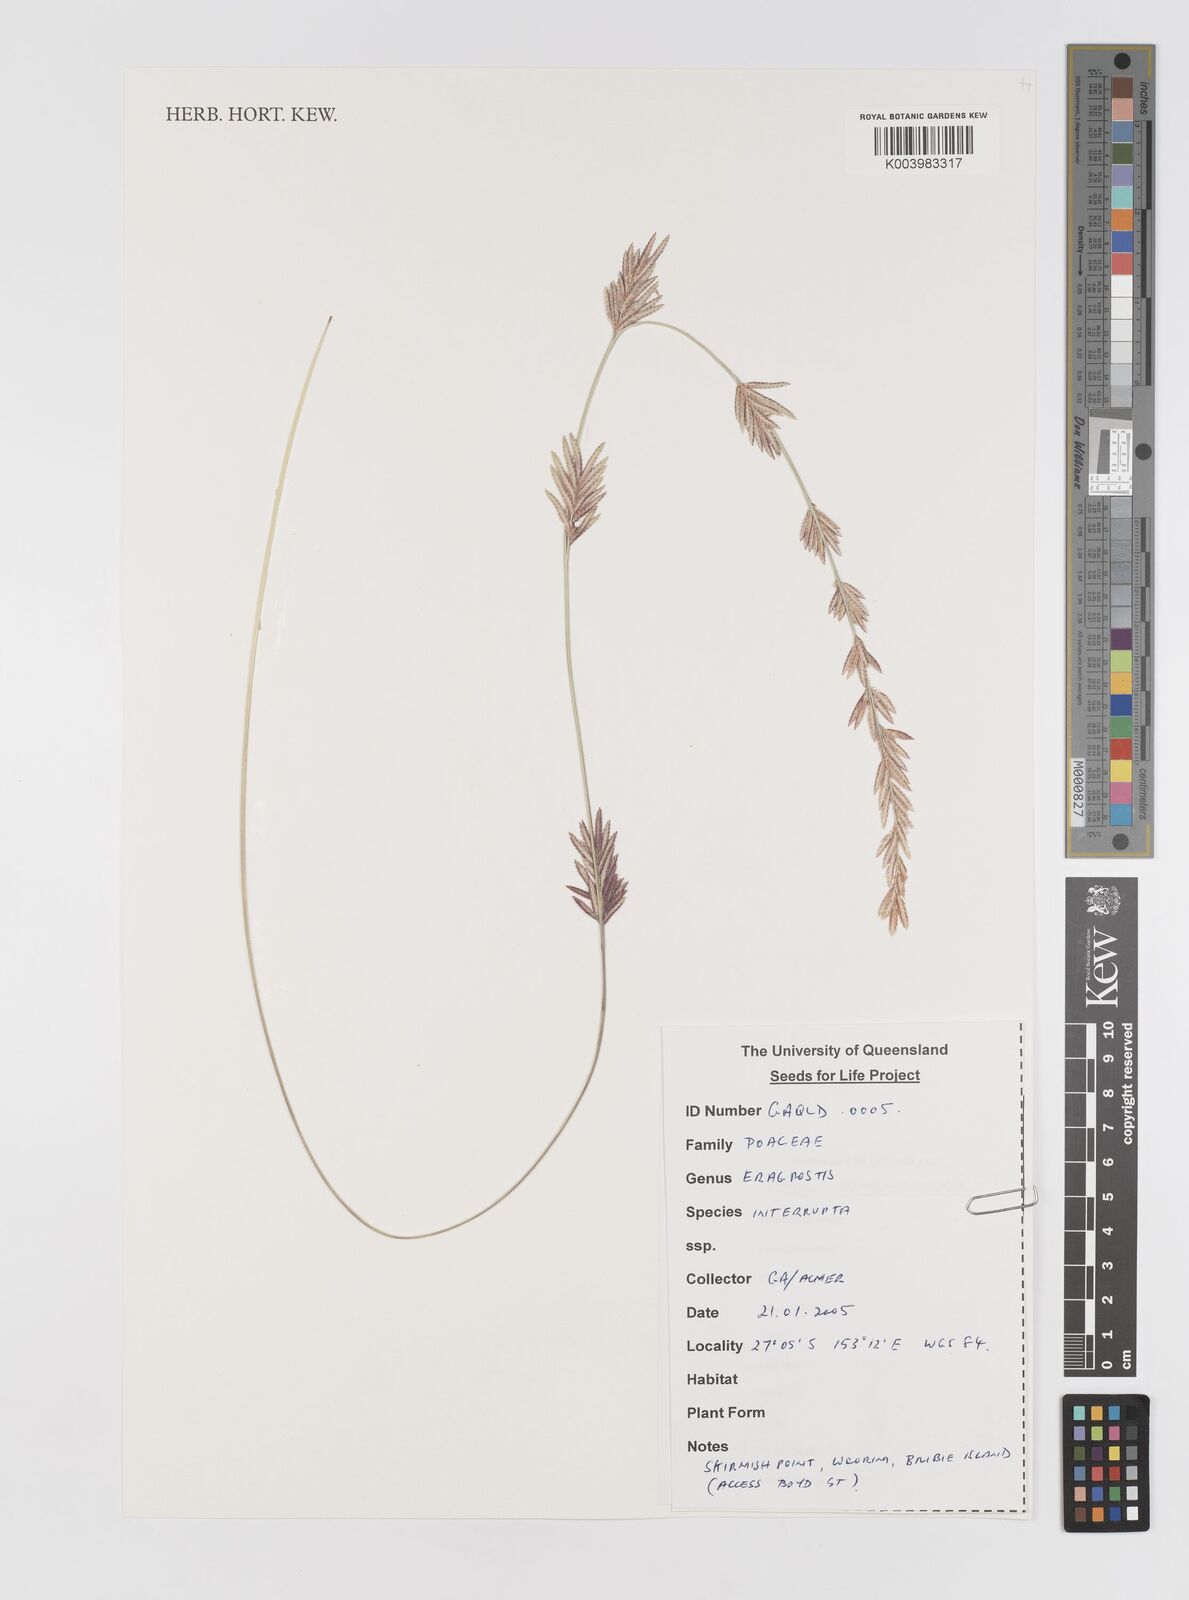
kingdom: Plantae
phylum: Tracheophyta
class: Liliopsida
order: Poales
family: Poaceae
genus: Eragrostis
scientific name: Eragrostis interrupta
